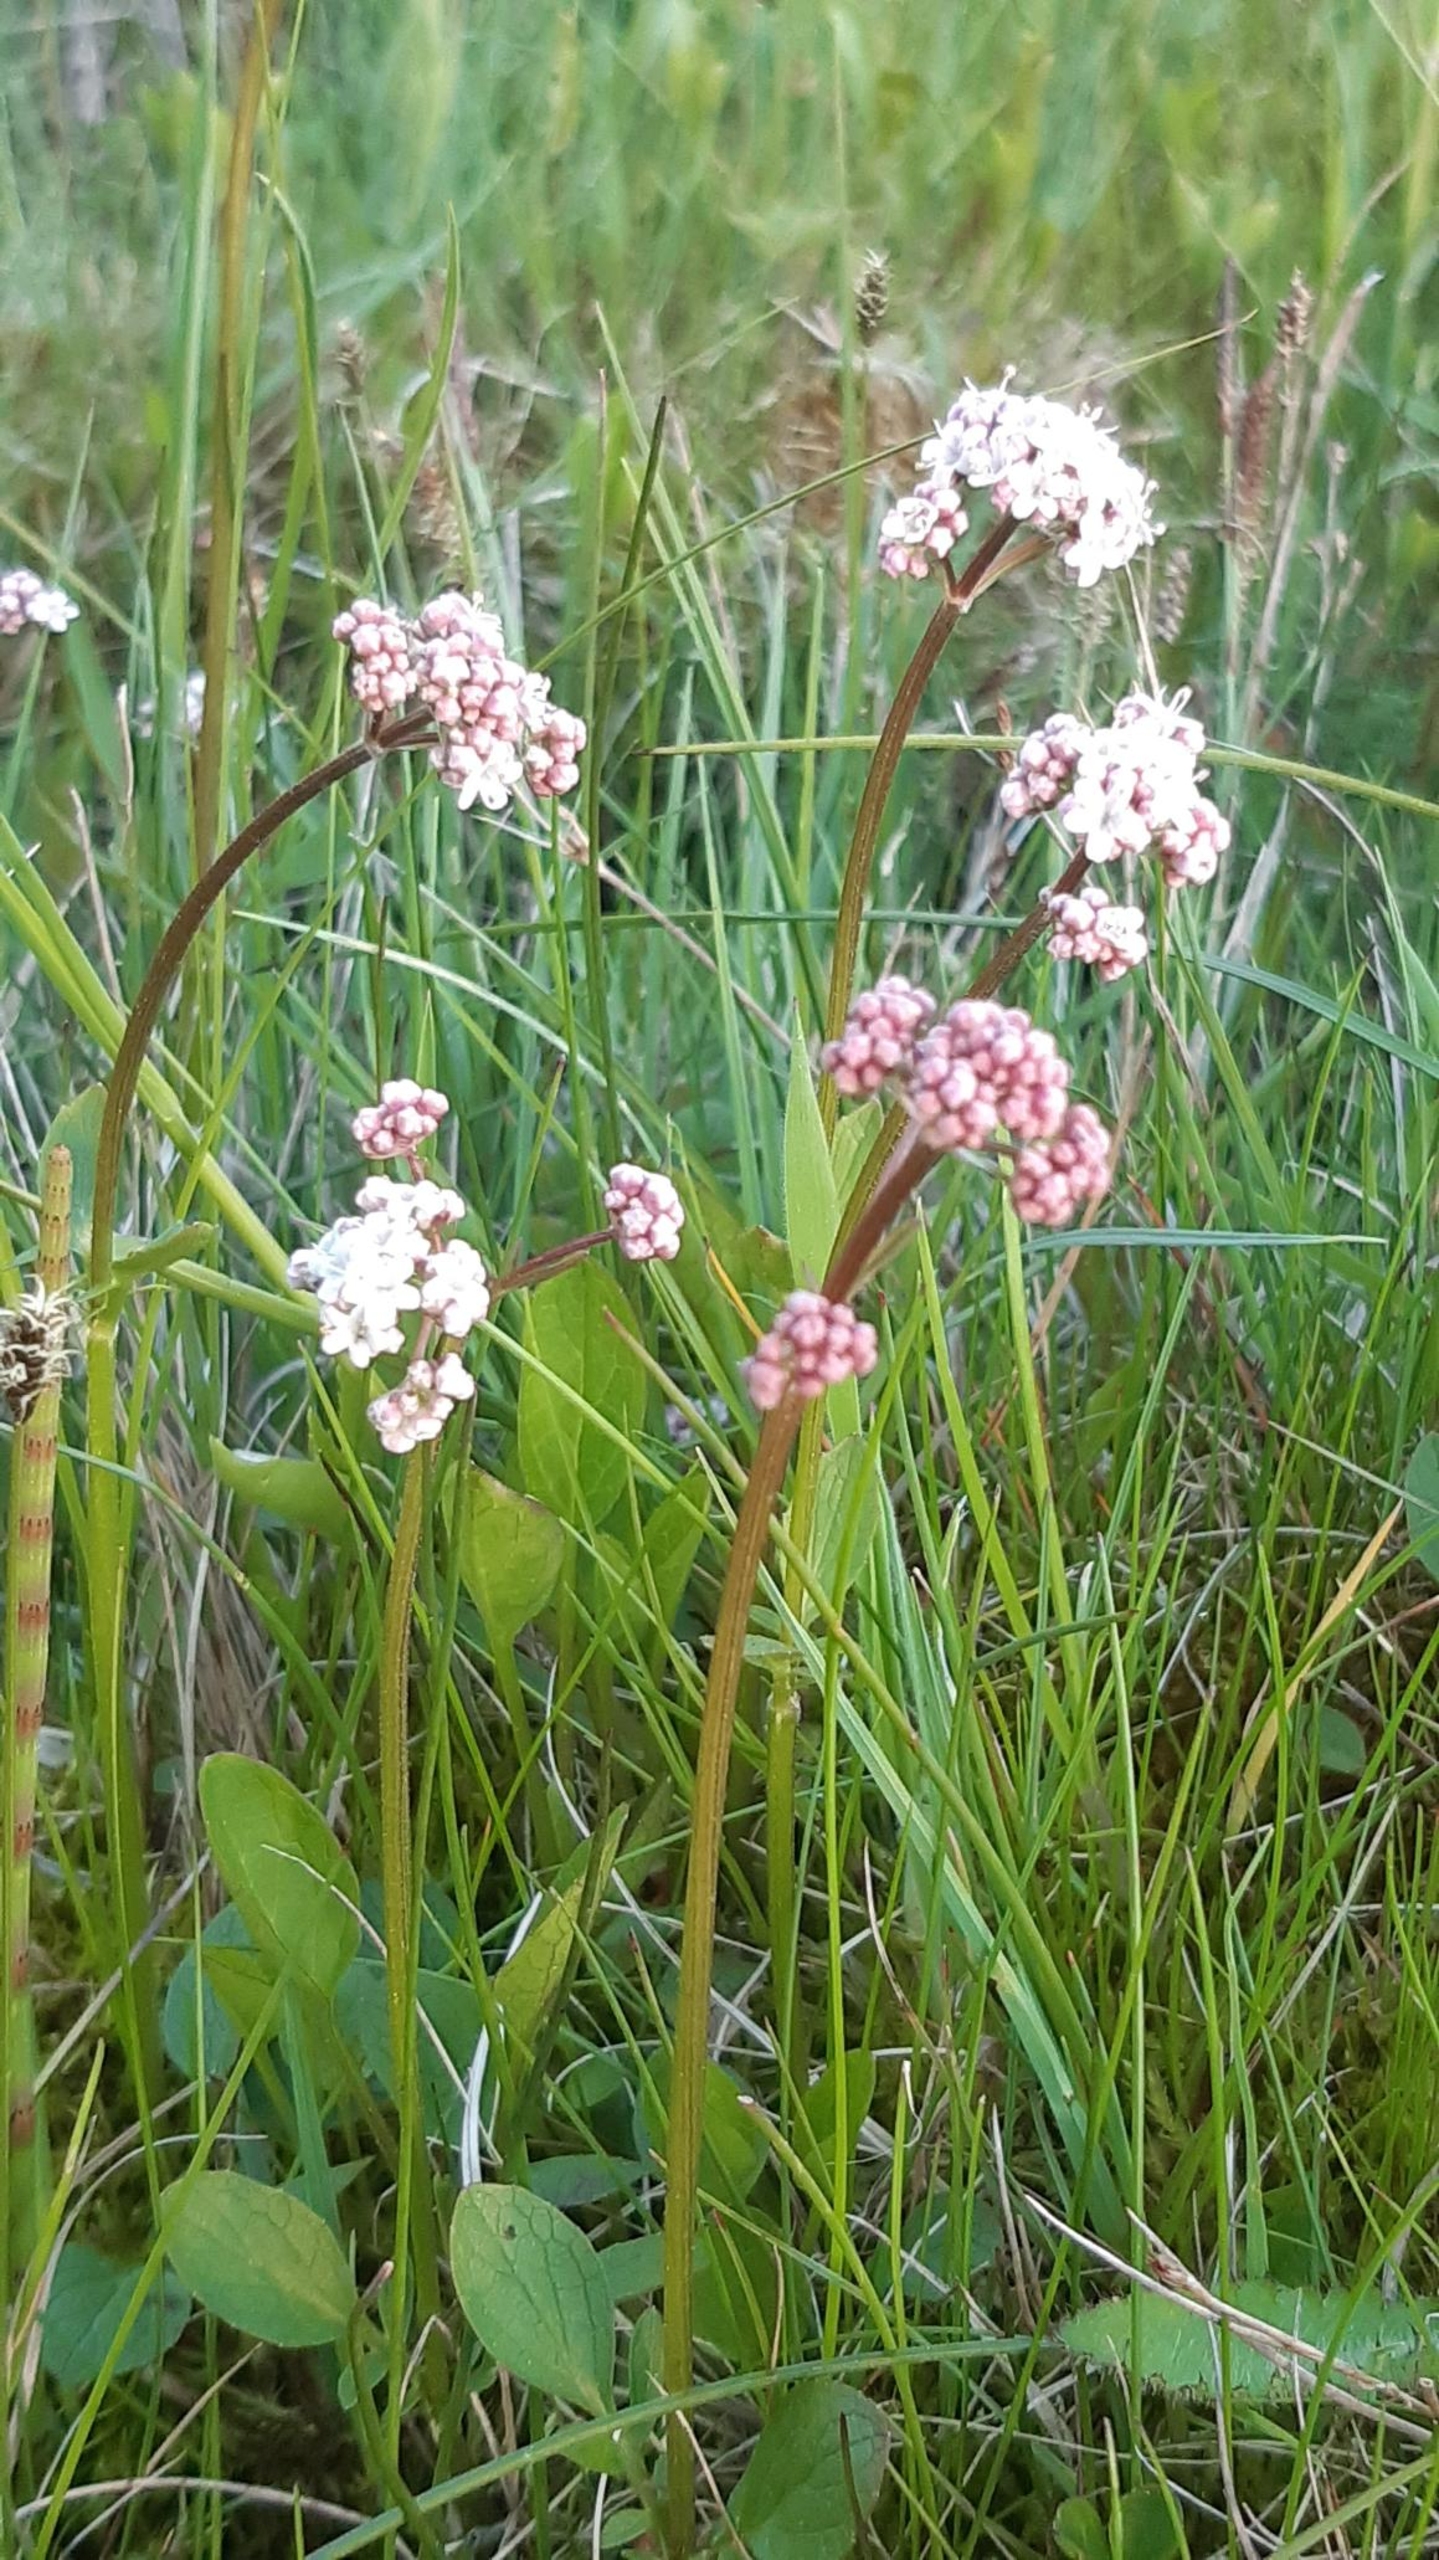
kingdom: Plantae
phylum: Tracheophyta
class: Magnoliopsida
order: Dipsacales
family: Caprifoliaceae
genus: Valeriana
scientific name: Valeriana dioica
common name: Tvebo baldrian
